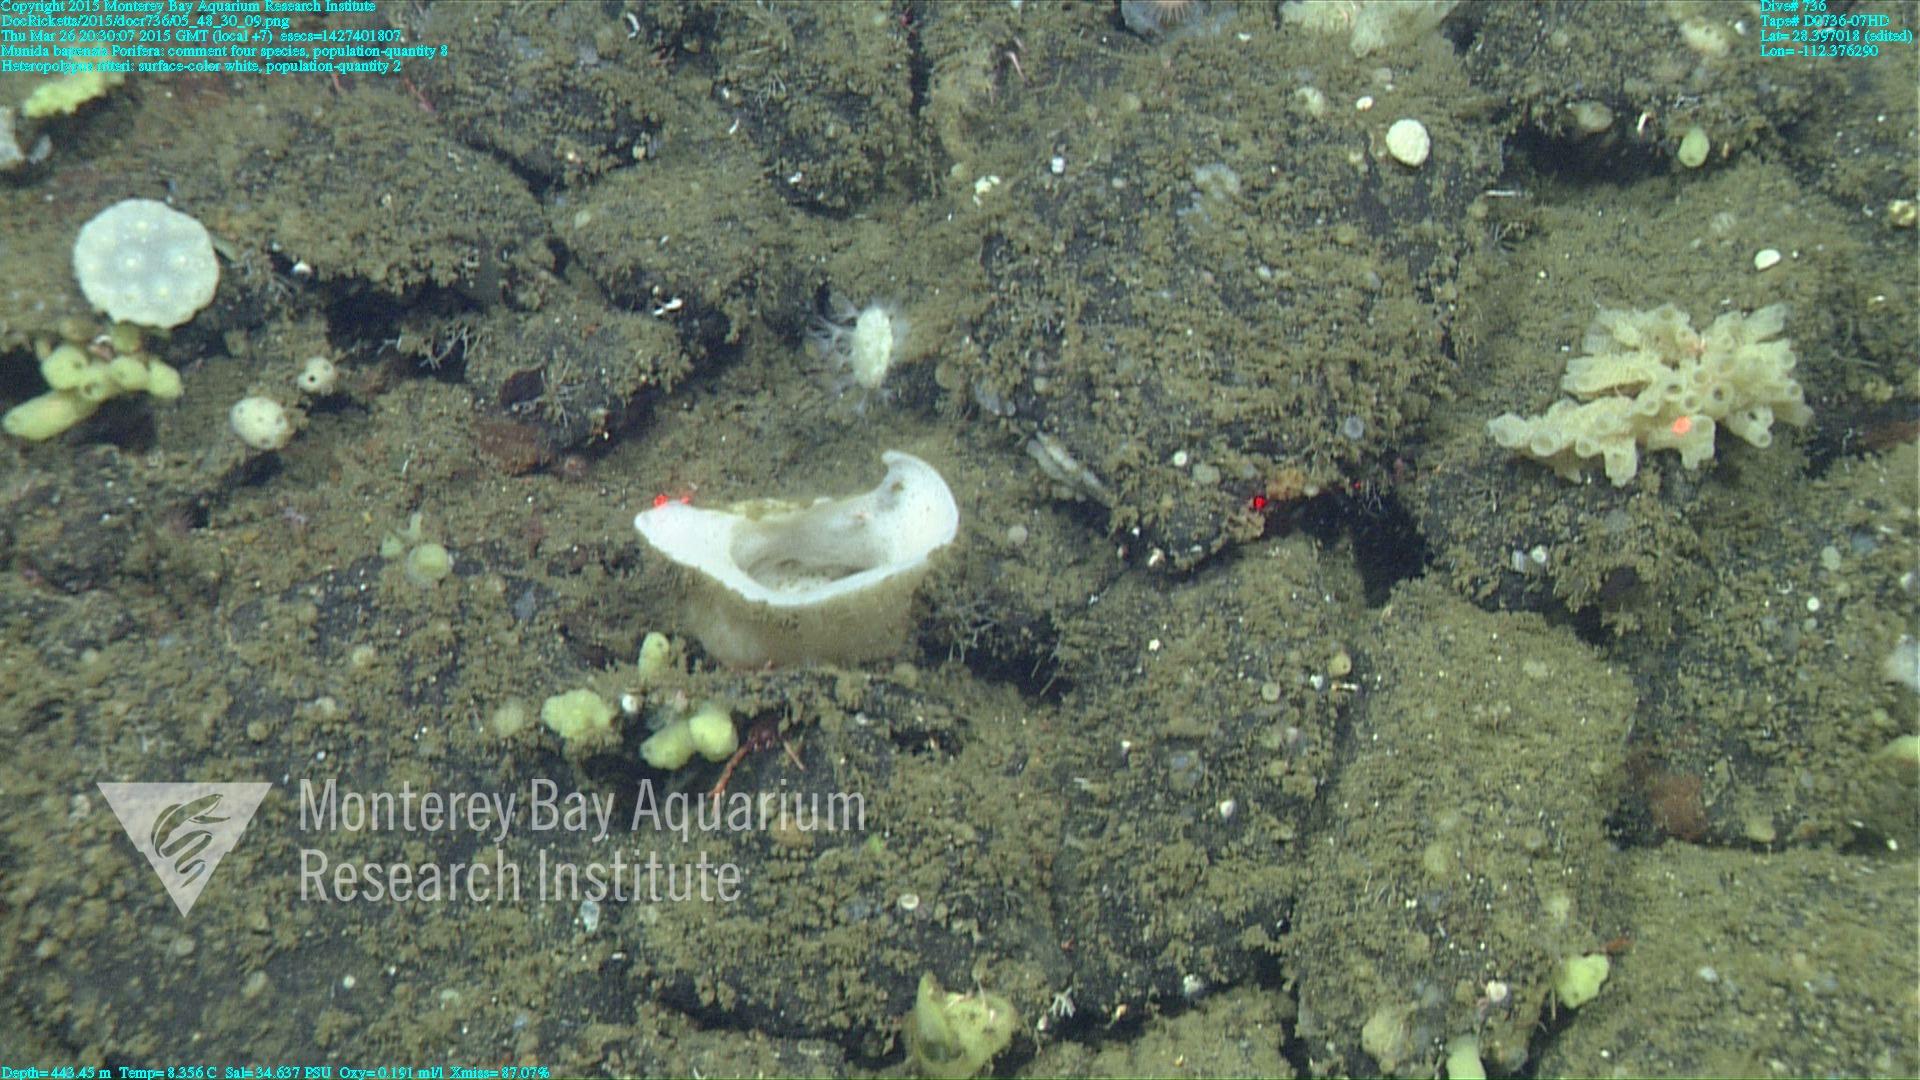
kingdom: Animalia
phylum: Cnidaria
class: Anthozoa
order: Scleralcyonacea
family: Coralliidae
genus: Heteropolypus
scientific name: Heteropolypus ritteri
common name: Ritter's soft coral
